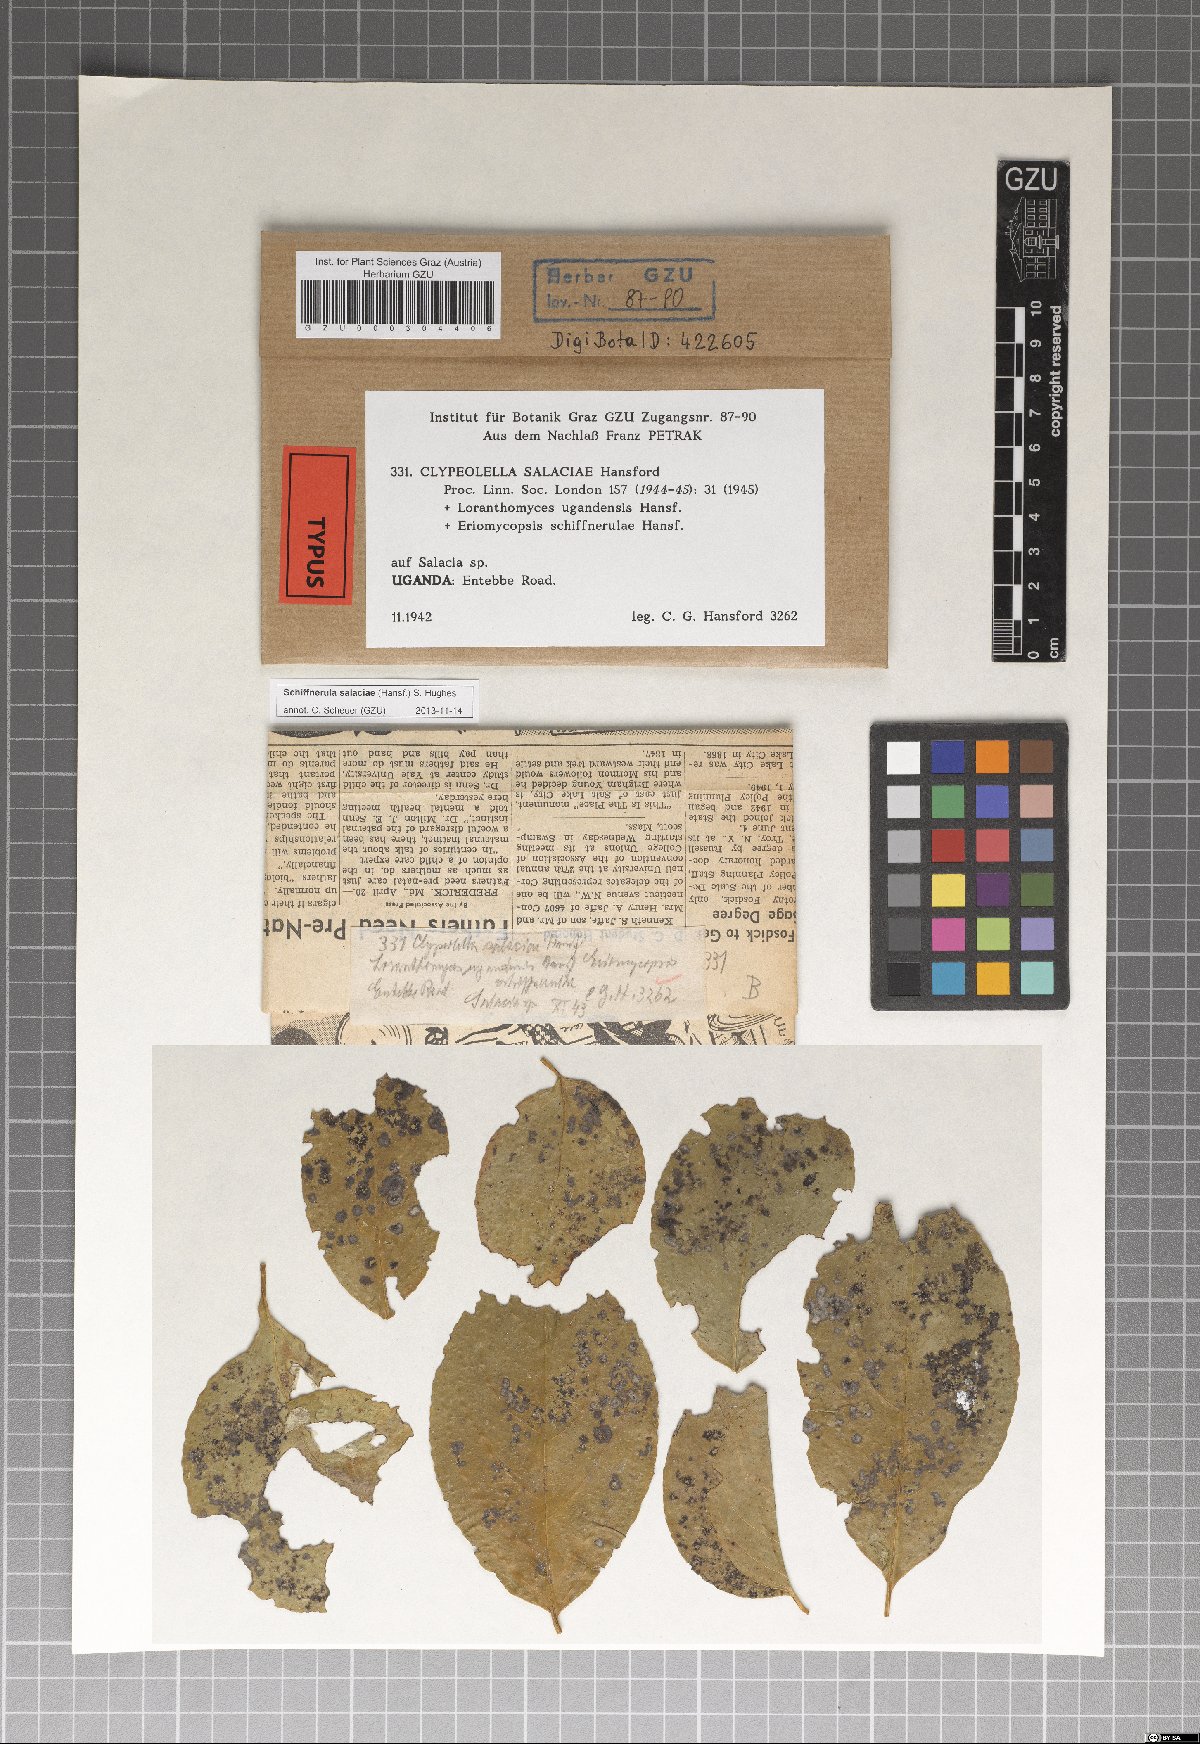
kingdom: Fungi
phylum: Ascomycota
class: Dothideomycetes
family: Englerulaceae
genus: Schiffnerula
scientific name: Schiffnerula salaciae
